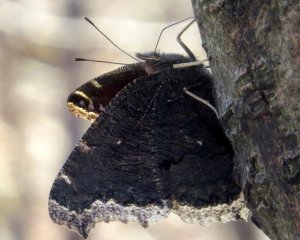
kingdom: Animalia
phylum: Arthropoda
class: Insecta
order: Lepidoptera
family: Nymphalidae
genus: Nymphalis
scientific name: Nymphalis antiopa
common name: Mourning Cloak
